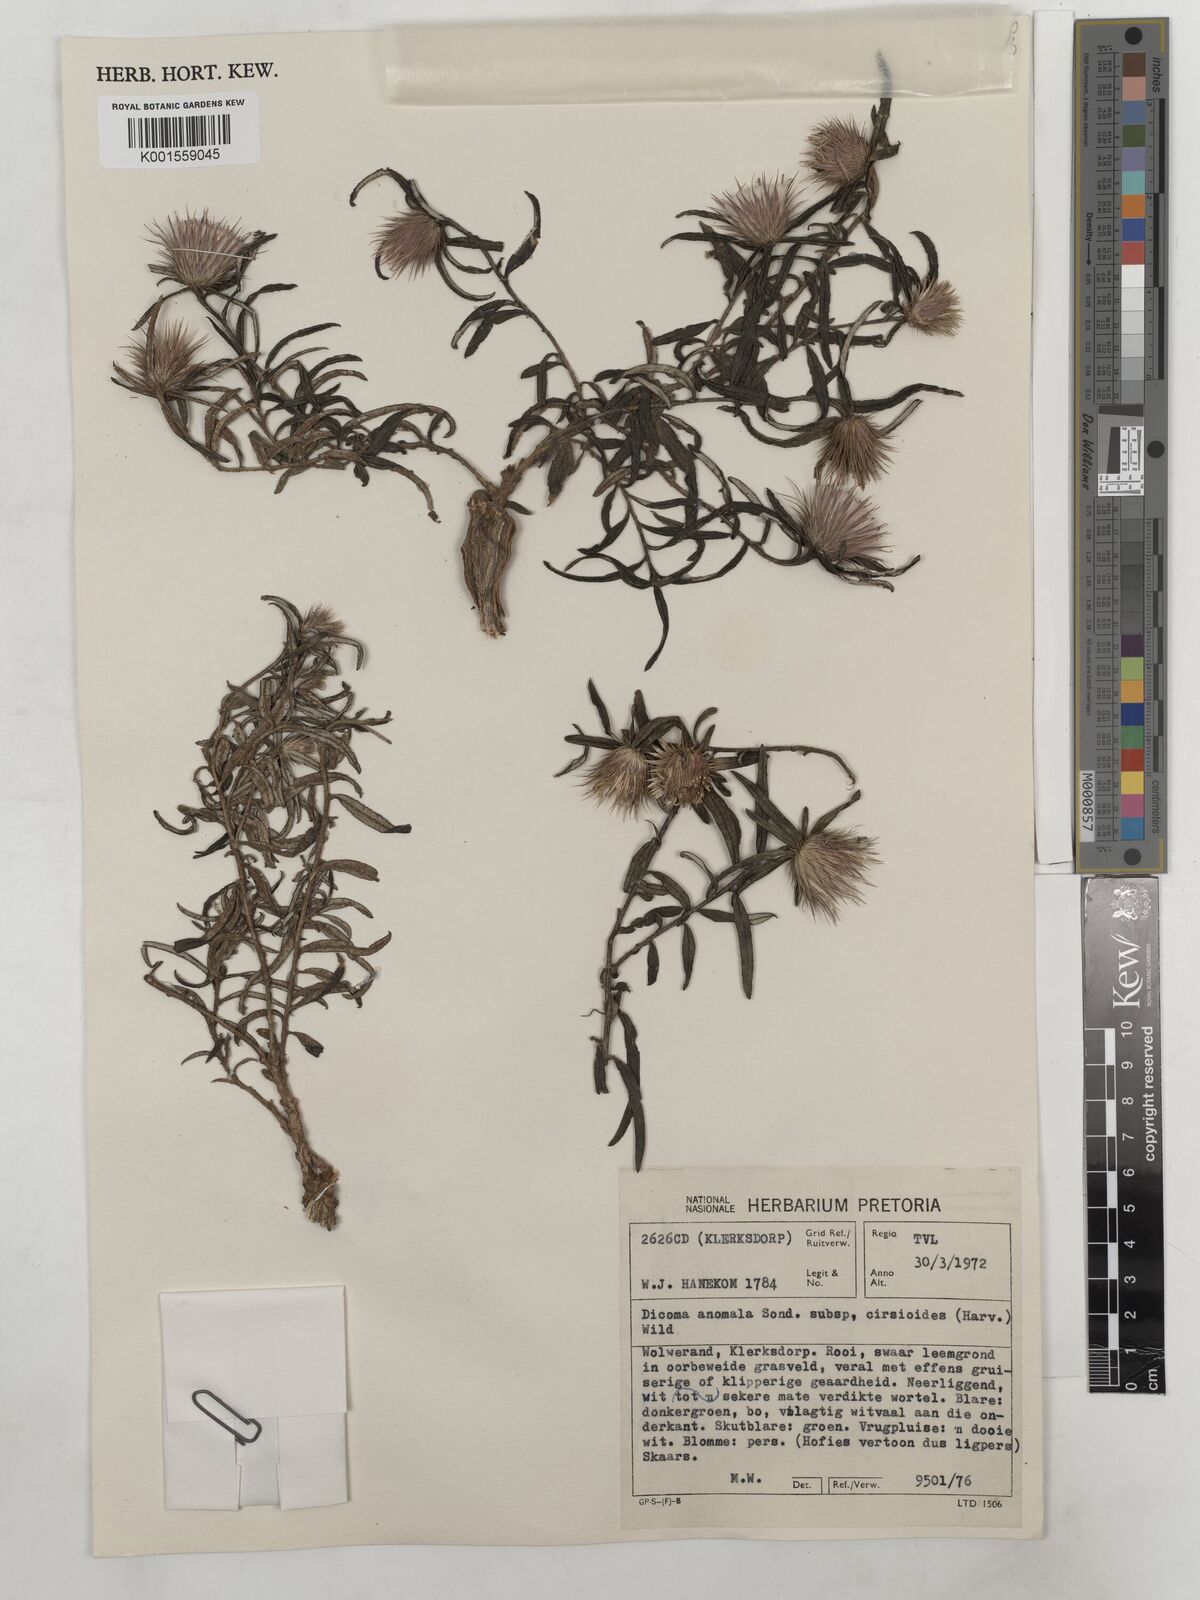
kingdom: Plantae
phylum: Tracheophyta
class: Magnoliopsida
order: Asterales
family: Asteraceae
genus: Dicoma
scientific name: Dicoma anomala
